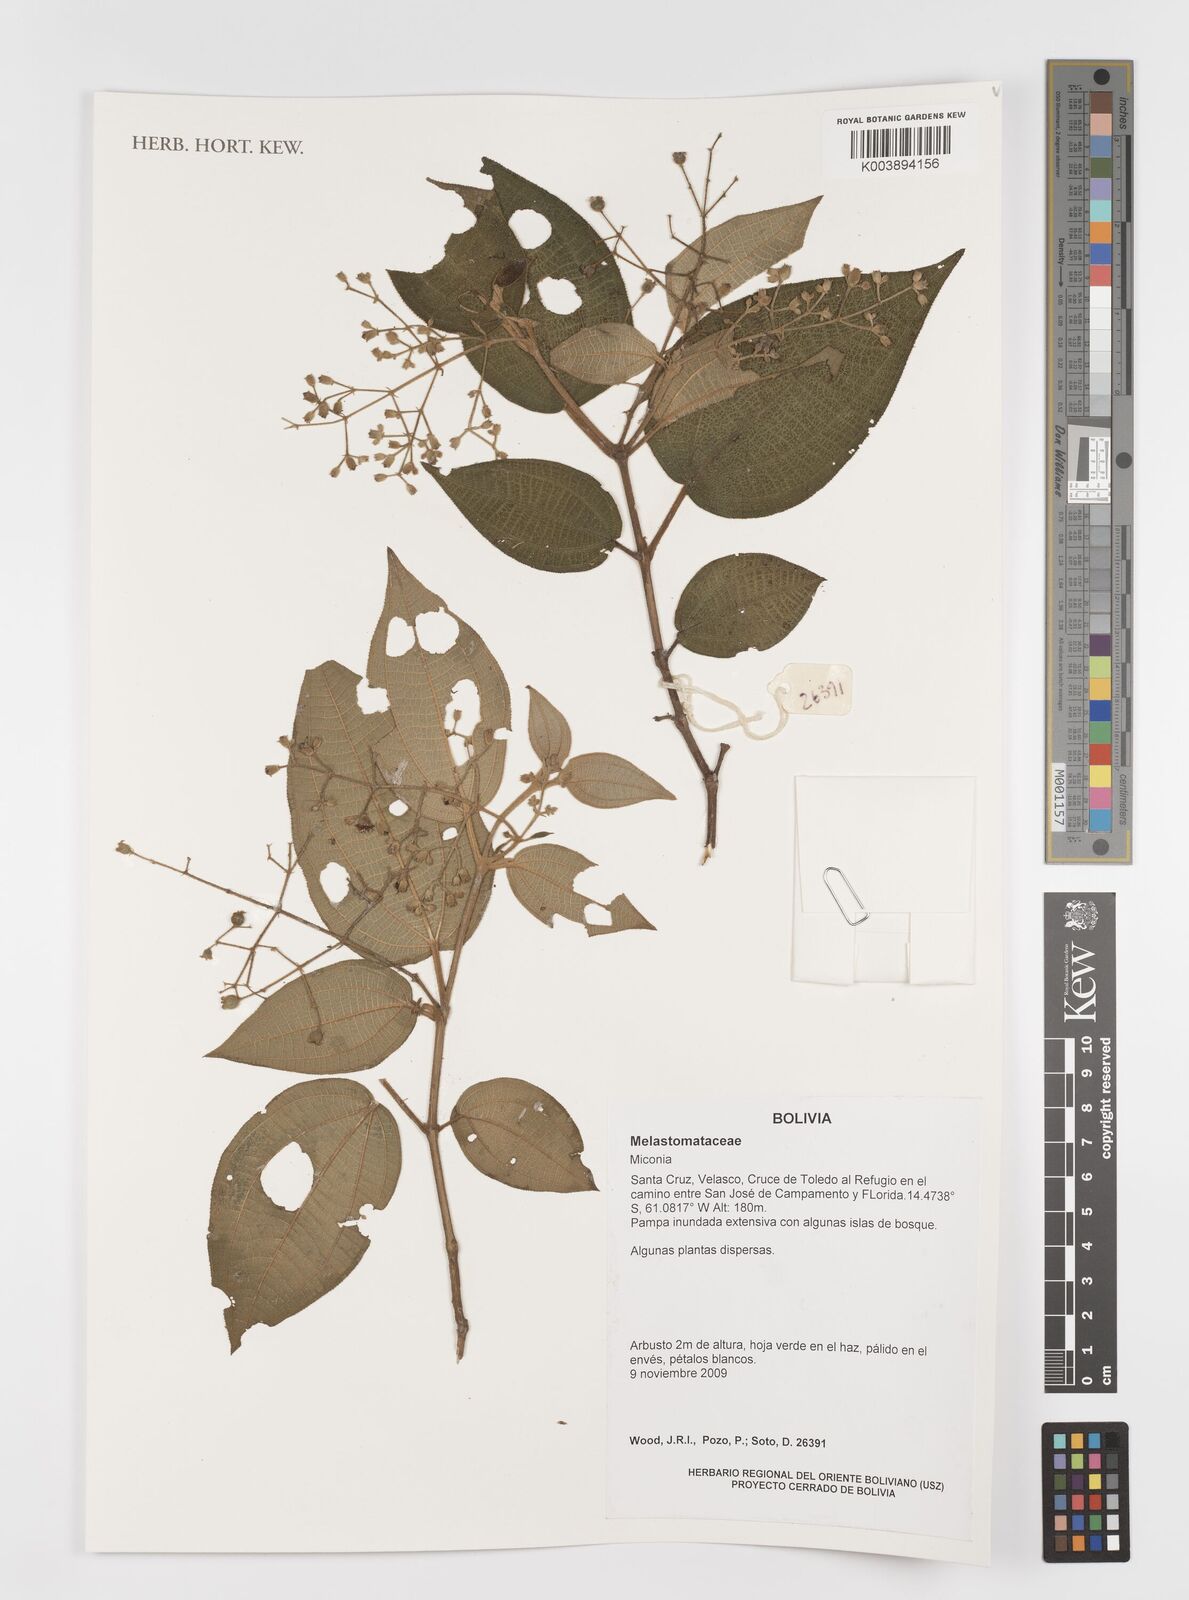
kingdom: Plantae
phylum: Tracheophyta
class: Magnoliopsida
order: Myrtales
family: Melastomataceae
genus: Miconia
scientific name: Miconia
